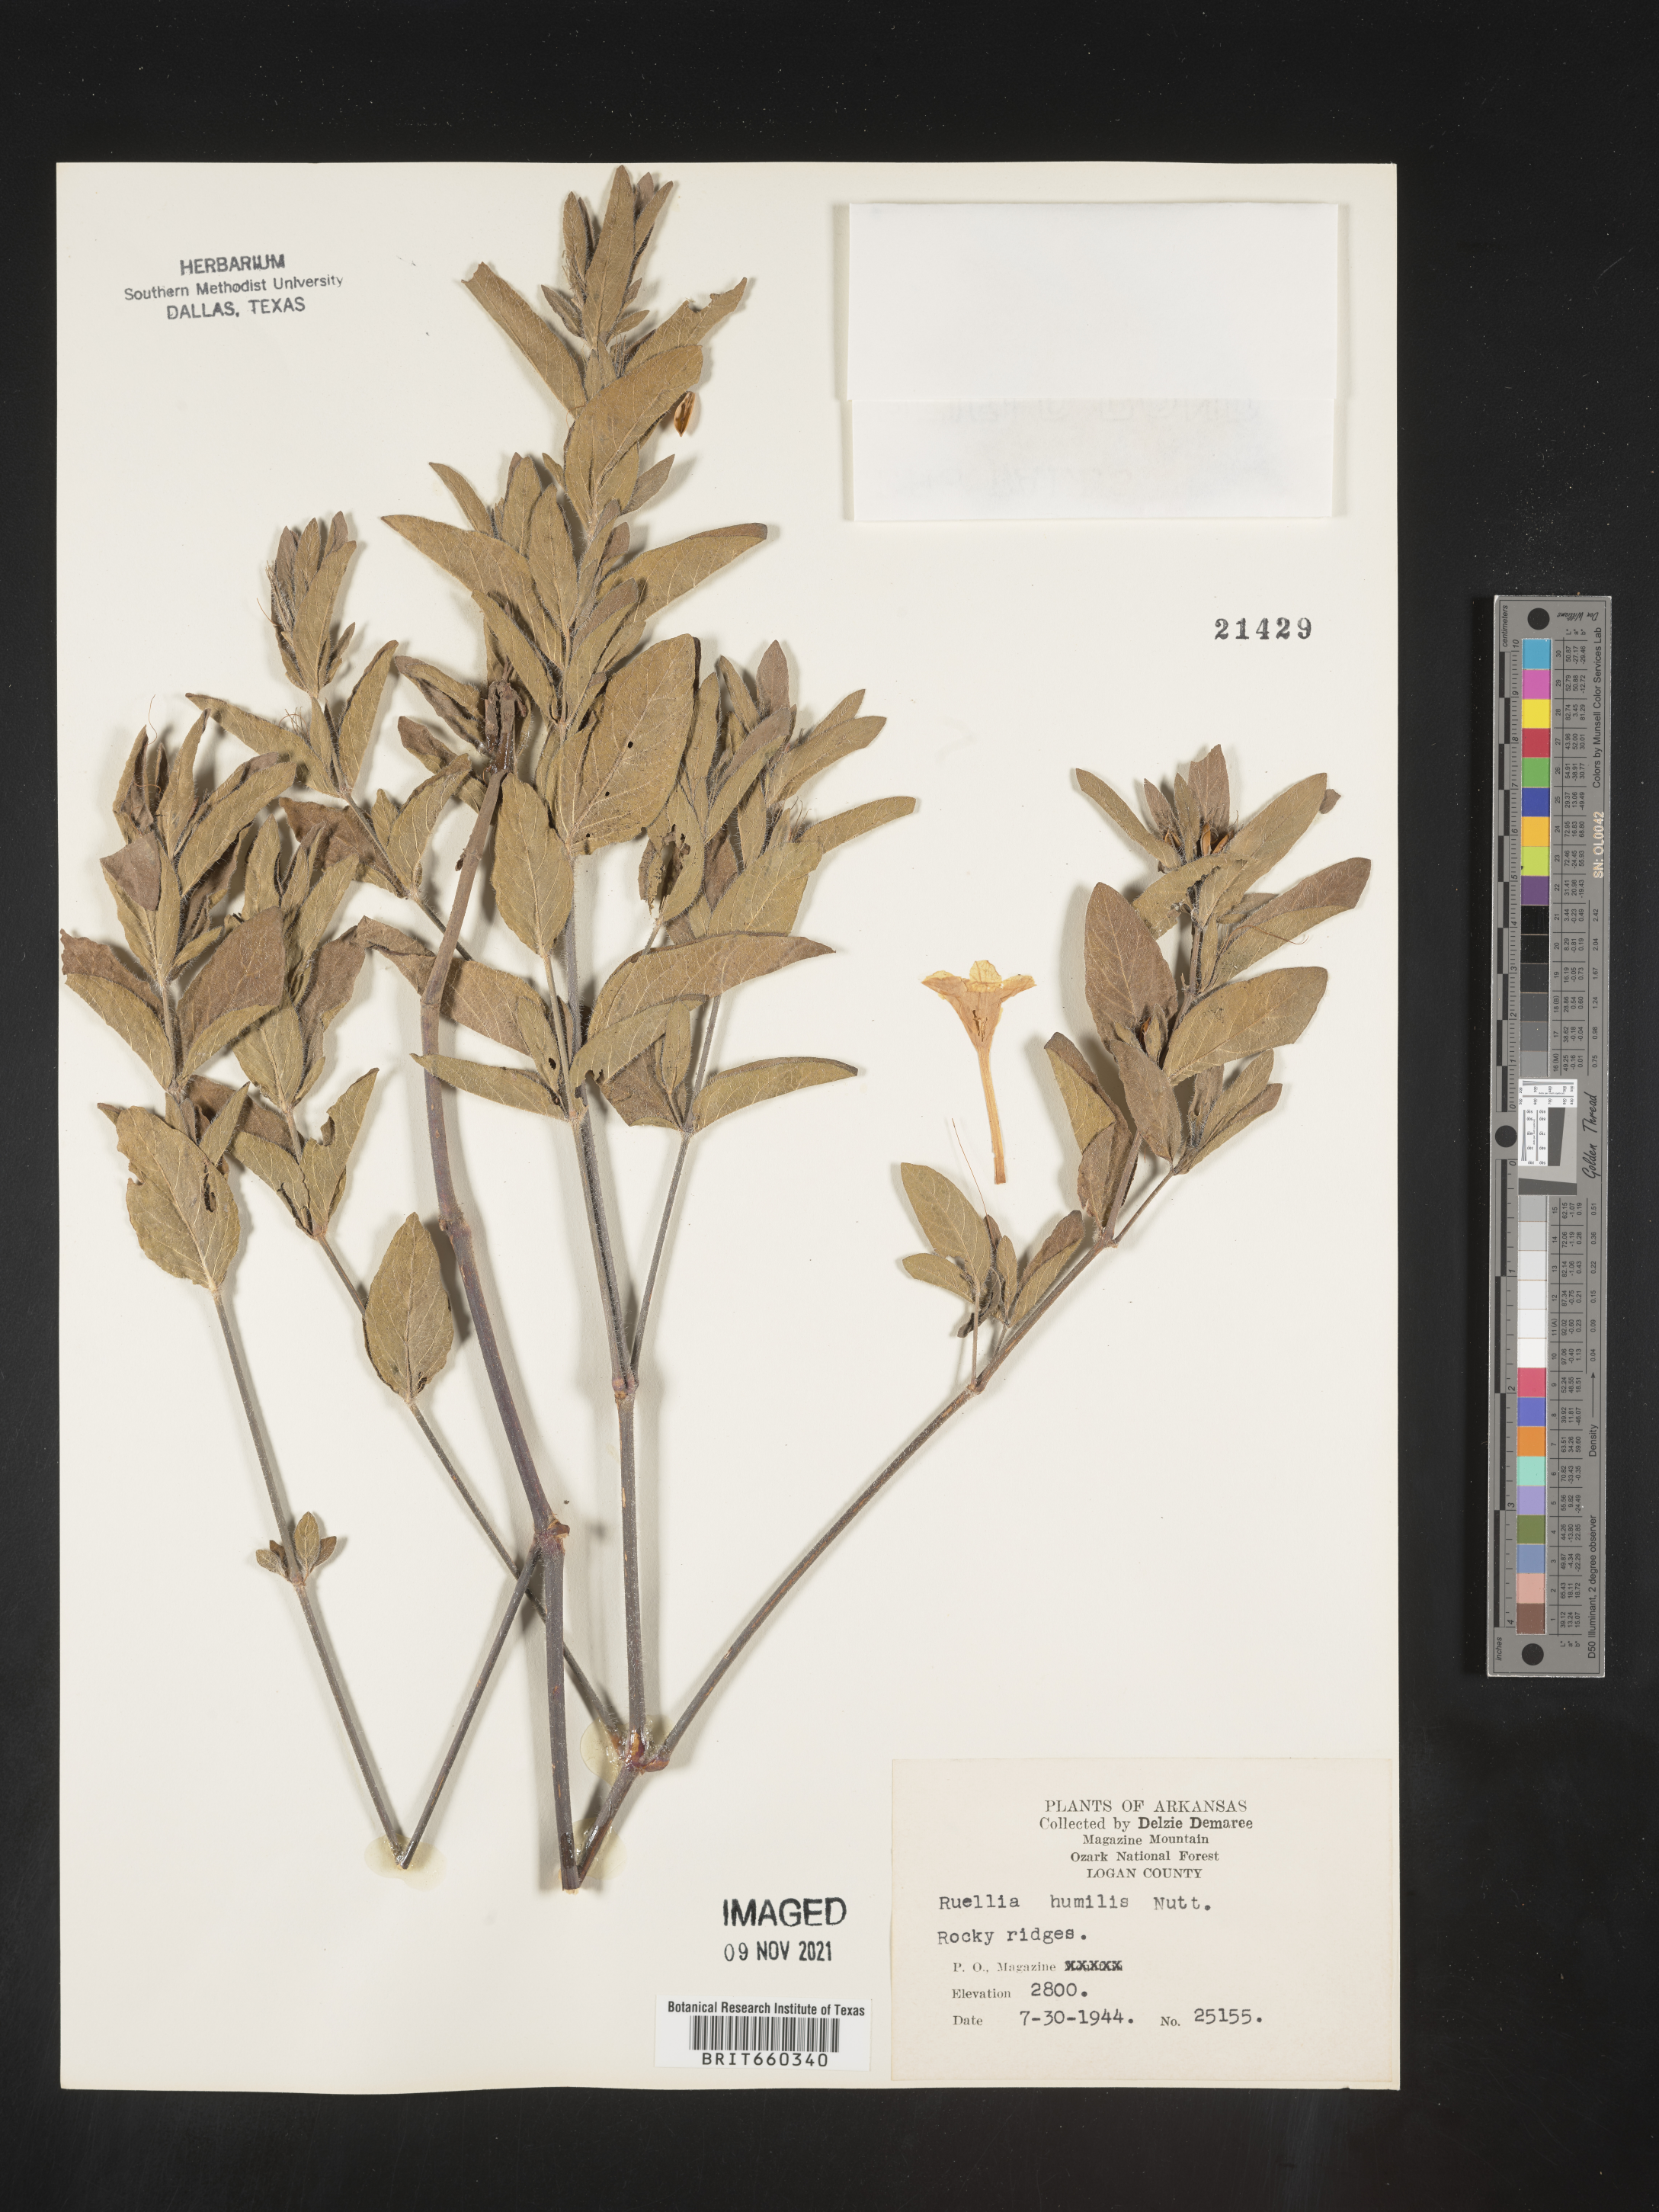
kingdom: Plantae
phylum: Tracheophyta
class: Magnoliopsida
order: Lamiales
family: Acanthaceae
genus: Ruellia
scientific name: Ruellia humilis
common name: Fringe-leaf ruellia
